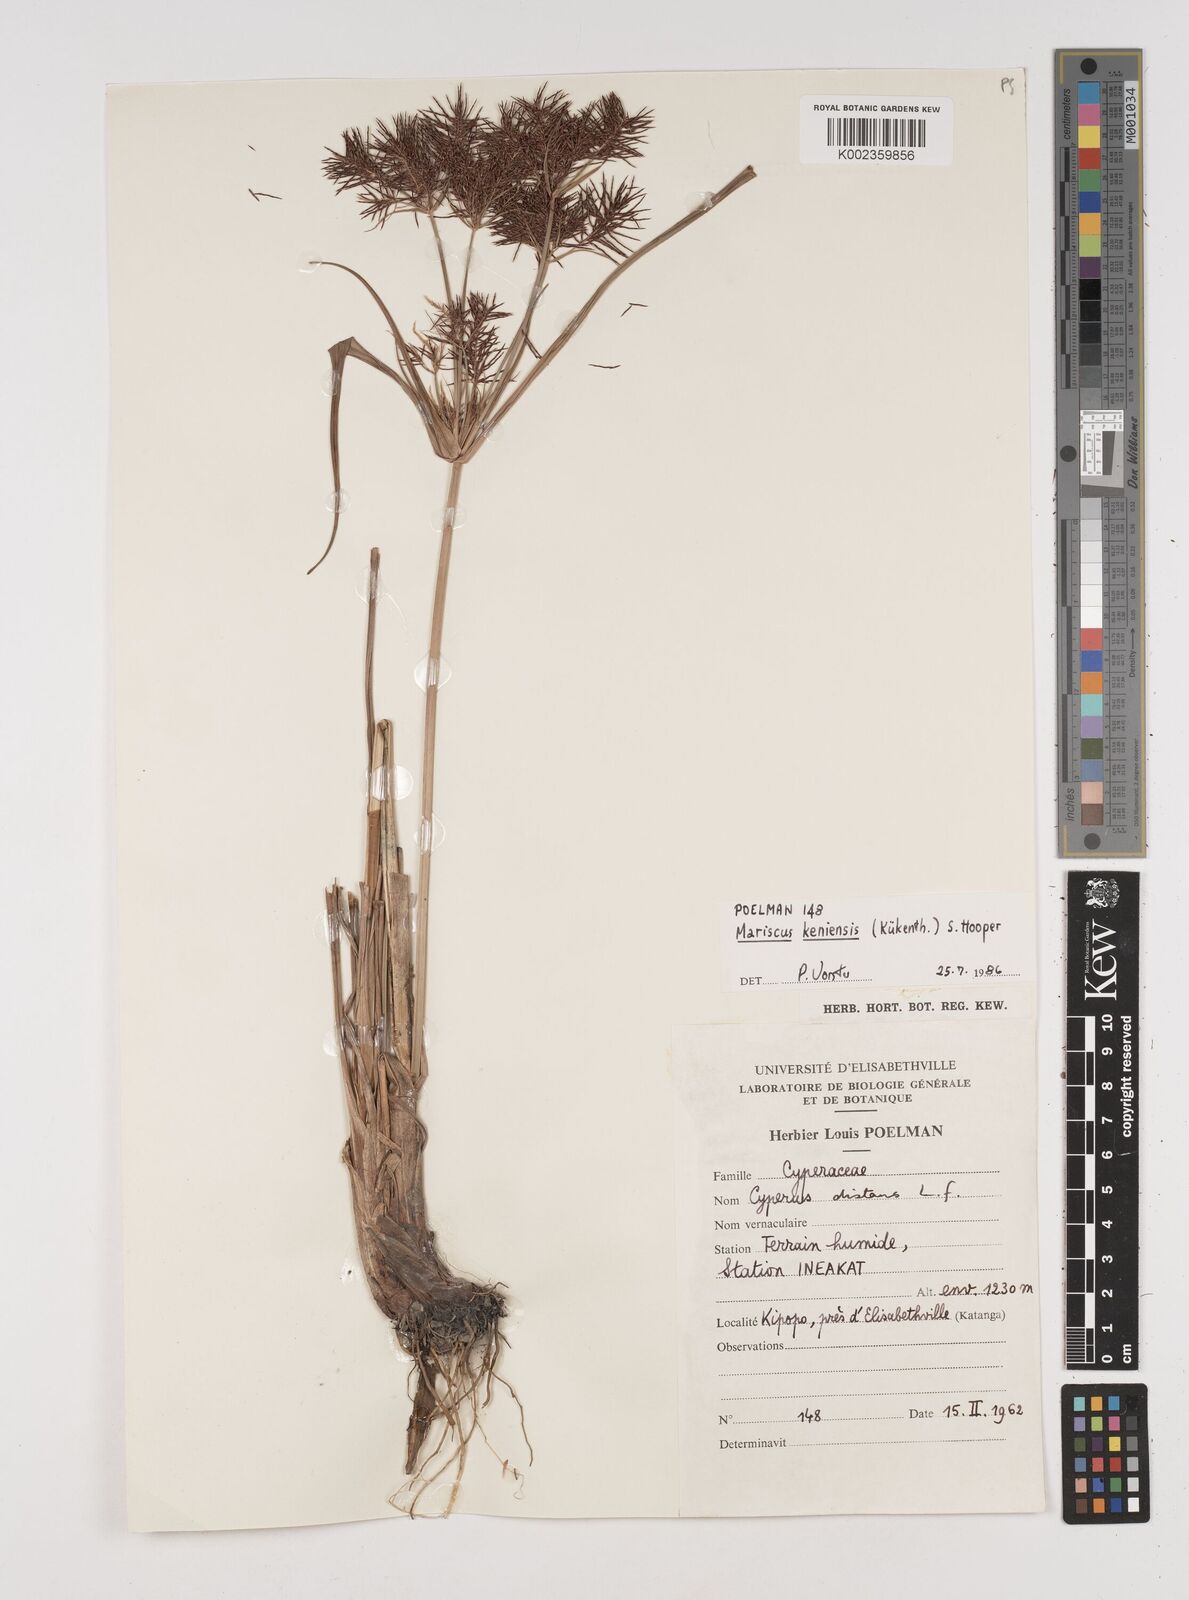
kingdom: Plantae
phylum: Tracheophyta
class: Liliopsida
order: Poales
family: Cyperaceae
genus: Cyperus
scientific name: Cyperus distans
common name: Slender cyperus
